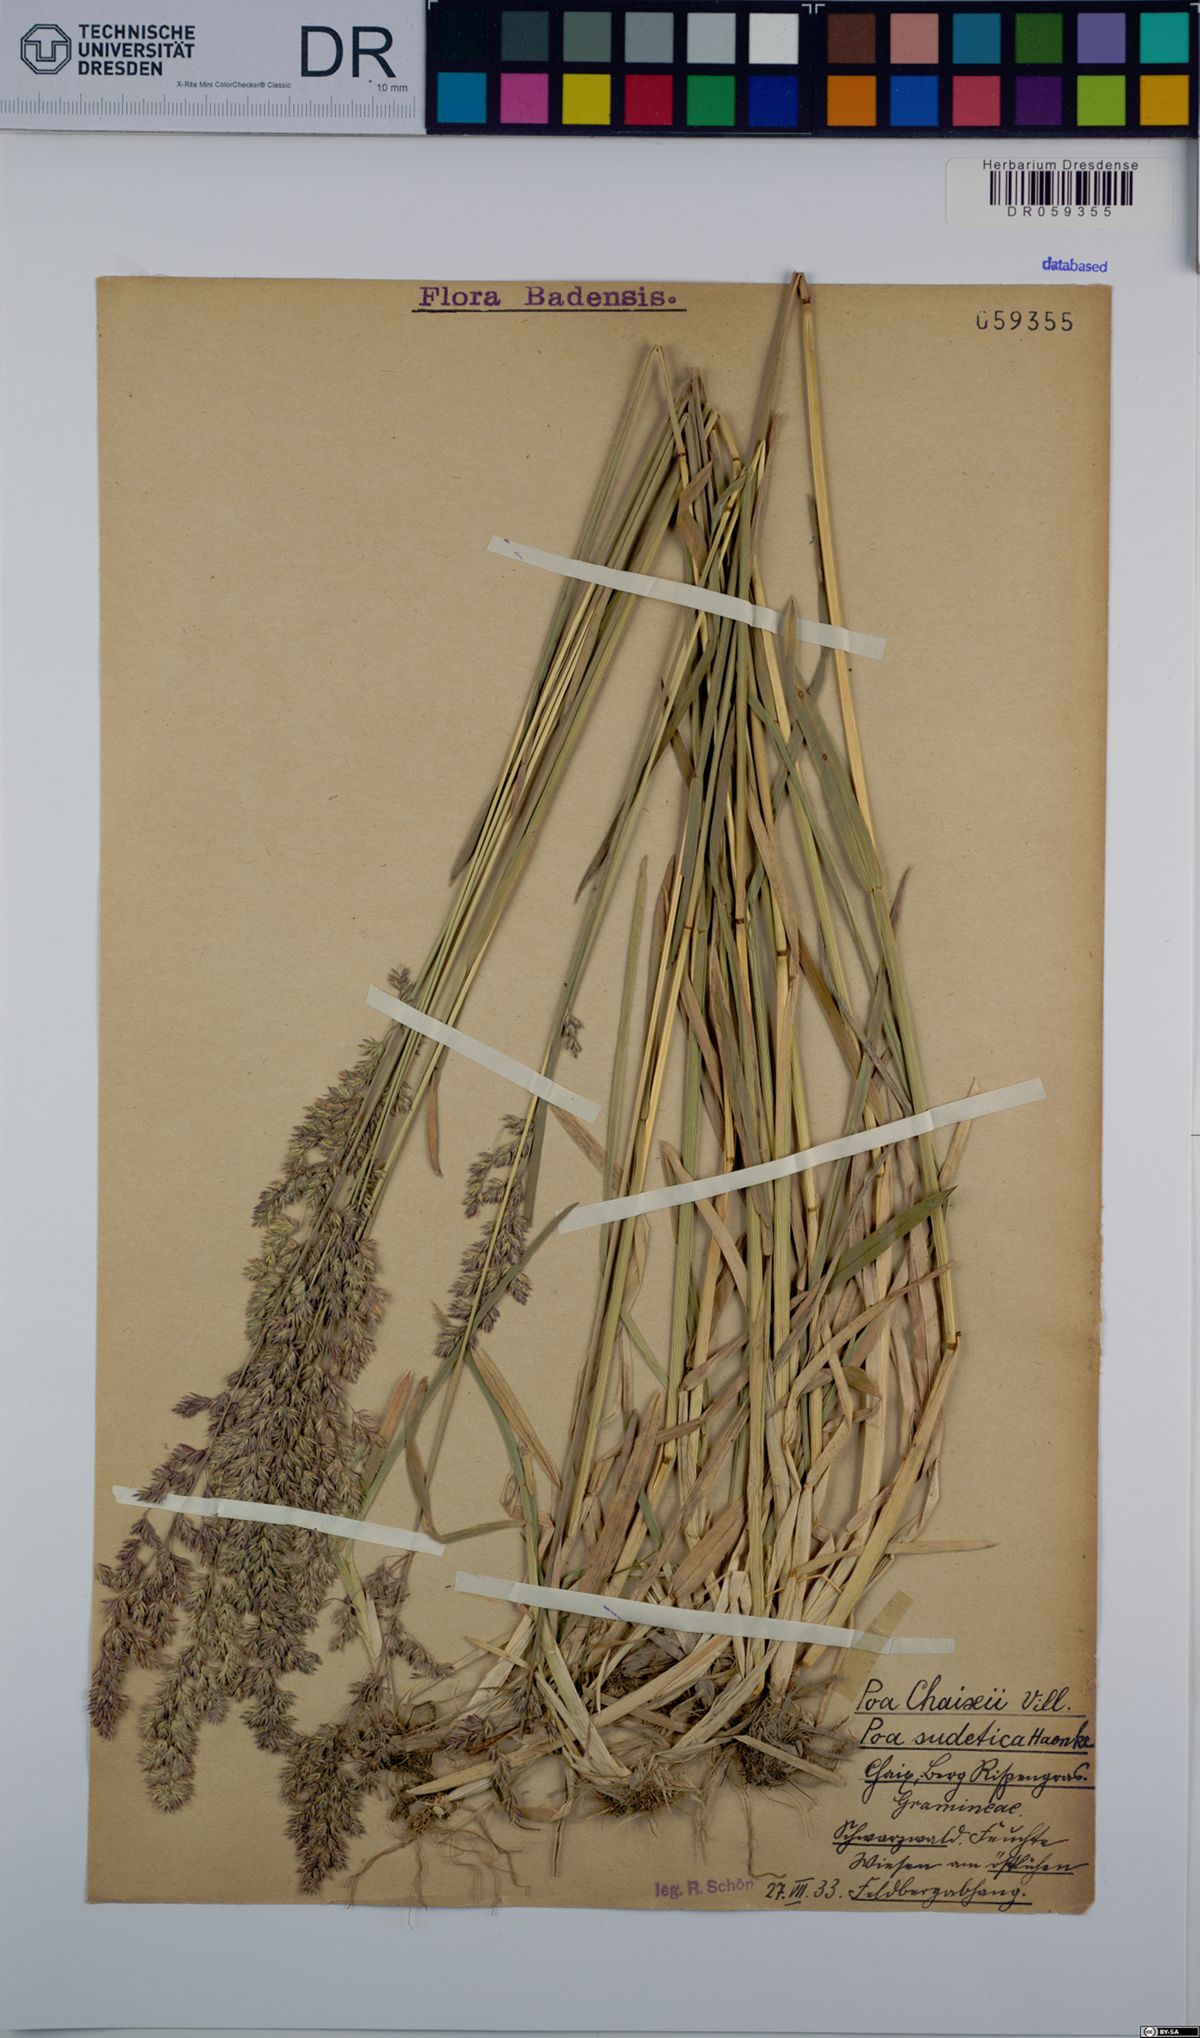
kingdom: Plantae
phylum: Tracheophyta
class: Liliopsida
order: Poales
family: Poaceae
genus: Poa
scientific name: Poa chaixii
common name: Broad-leaved meadow-grass
